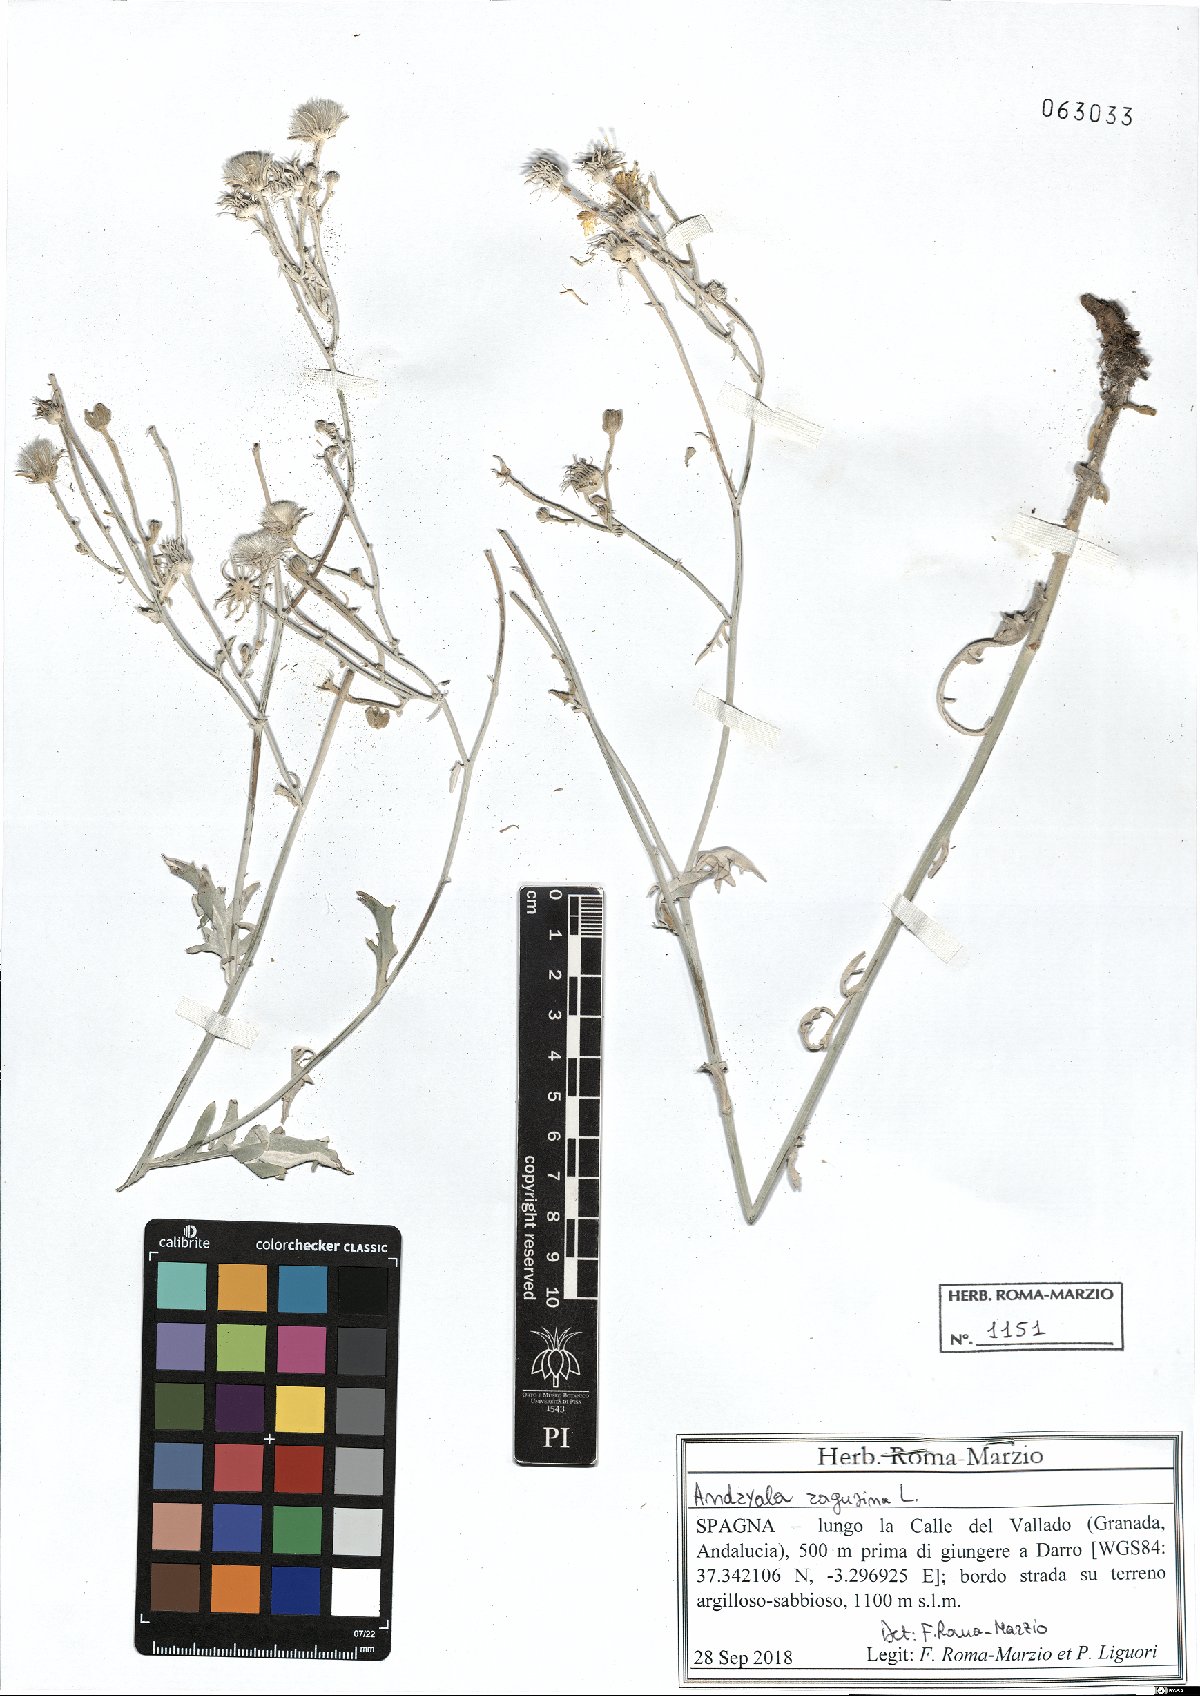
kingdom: Plantae
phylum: Tracheophyta
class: Magnoliopsida
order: Asterales
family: Asteraceae
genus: Andryala
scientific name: Andryala ragusina
